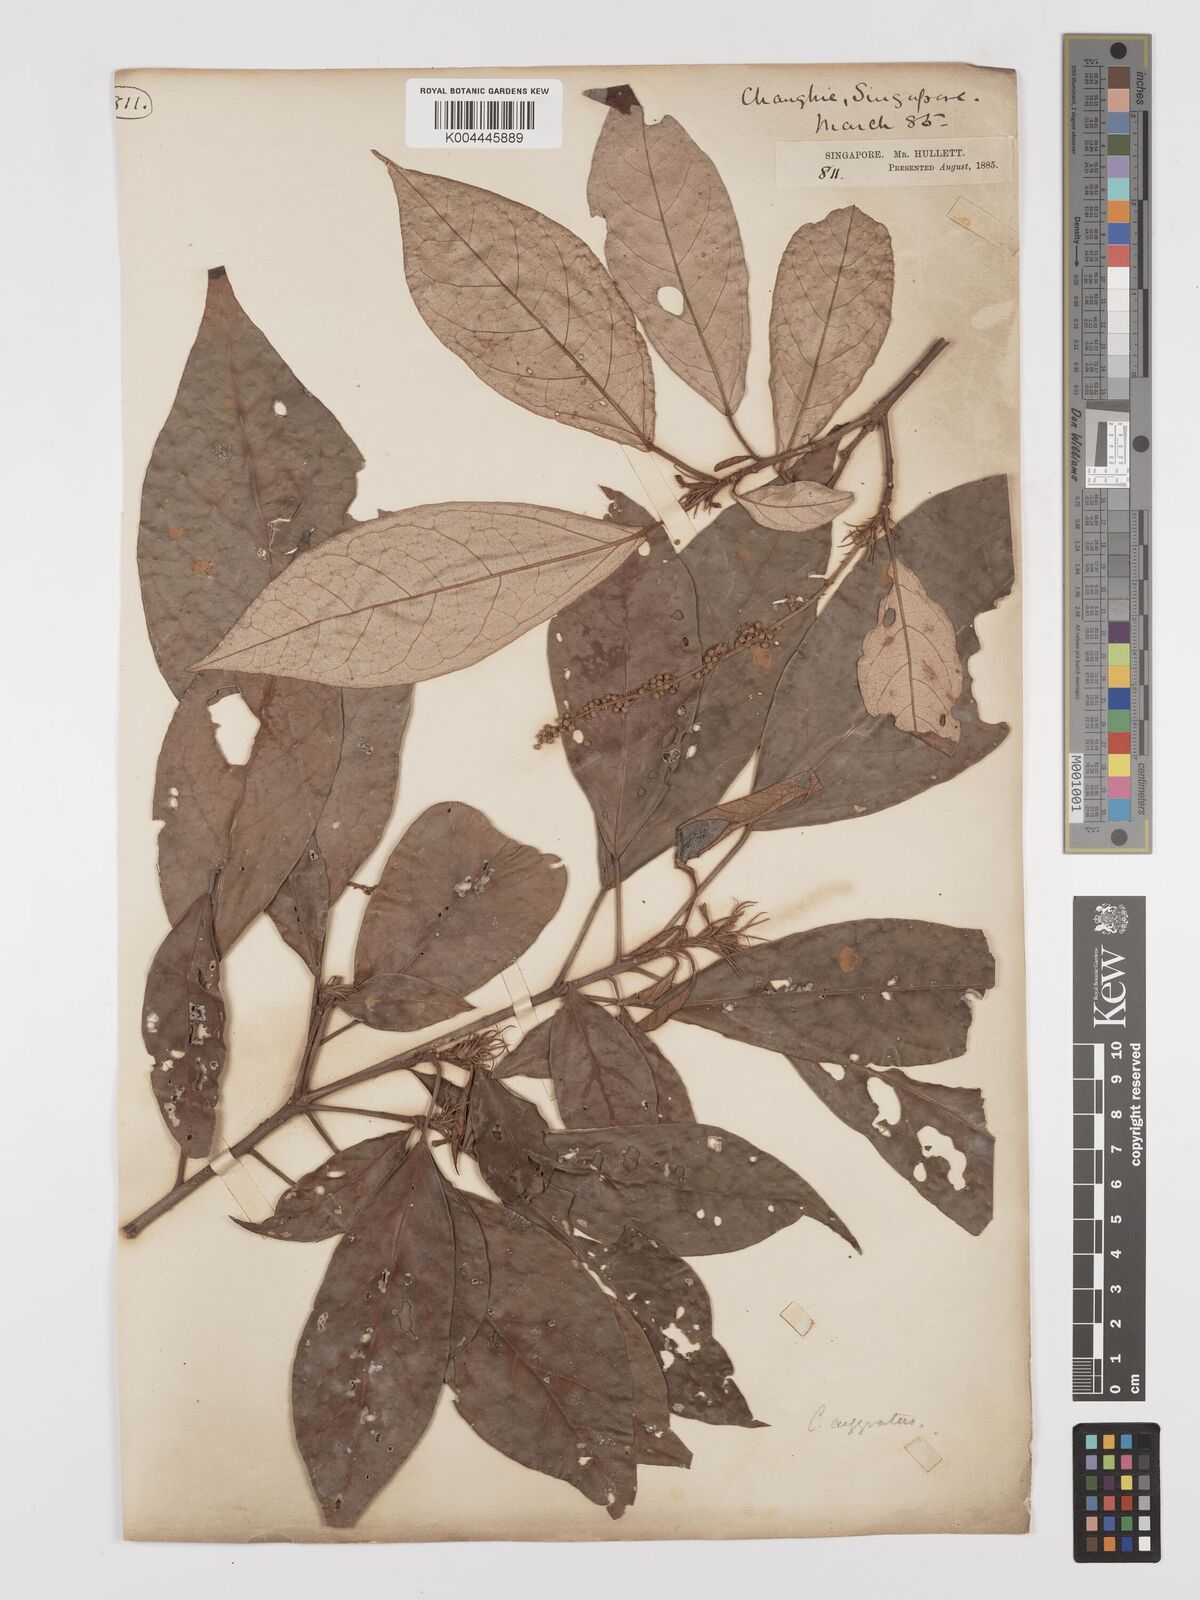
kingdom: Plantae
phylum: Tracheophyta
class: Magnoliopsida
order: Malpighiales
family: Euphorbiaceae
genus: Croton
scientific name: Croton argyratus
